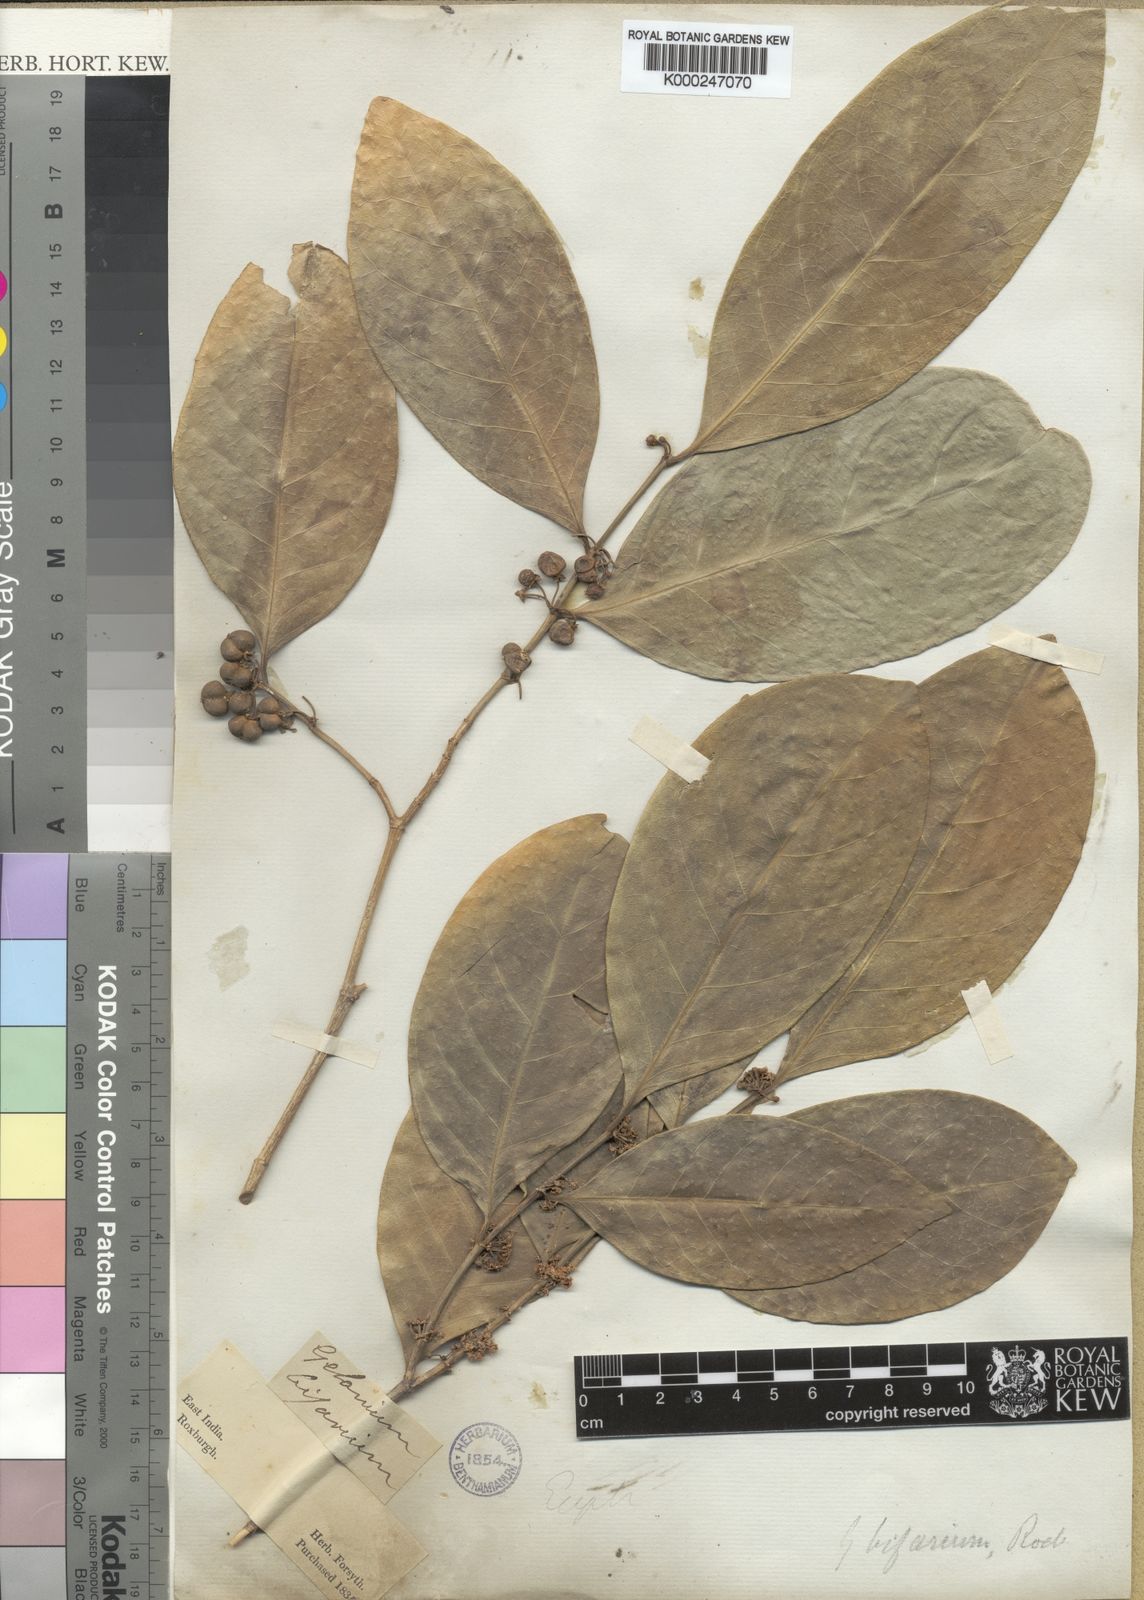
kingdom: Plantae
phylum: Tracheophyta
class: Magnoliopsida
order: Malpighiales
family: Euphorbiaceae
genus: Suregada
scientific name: Suregada bifaria
